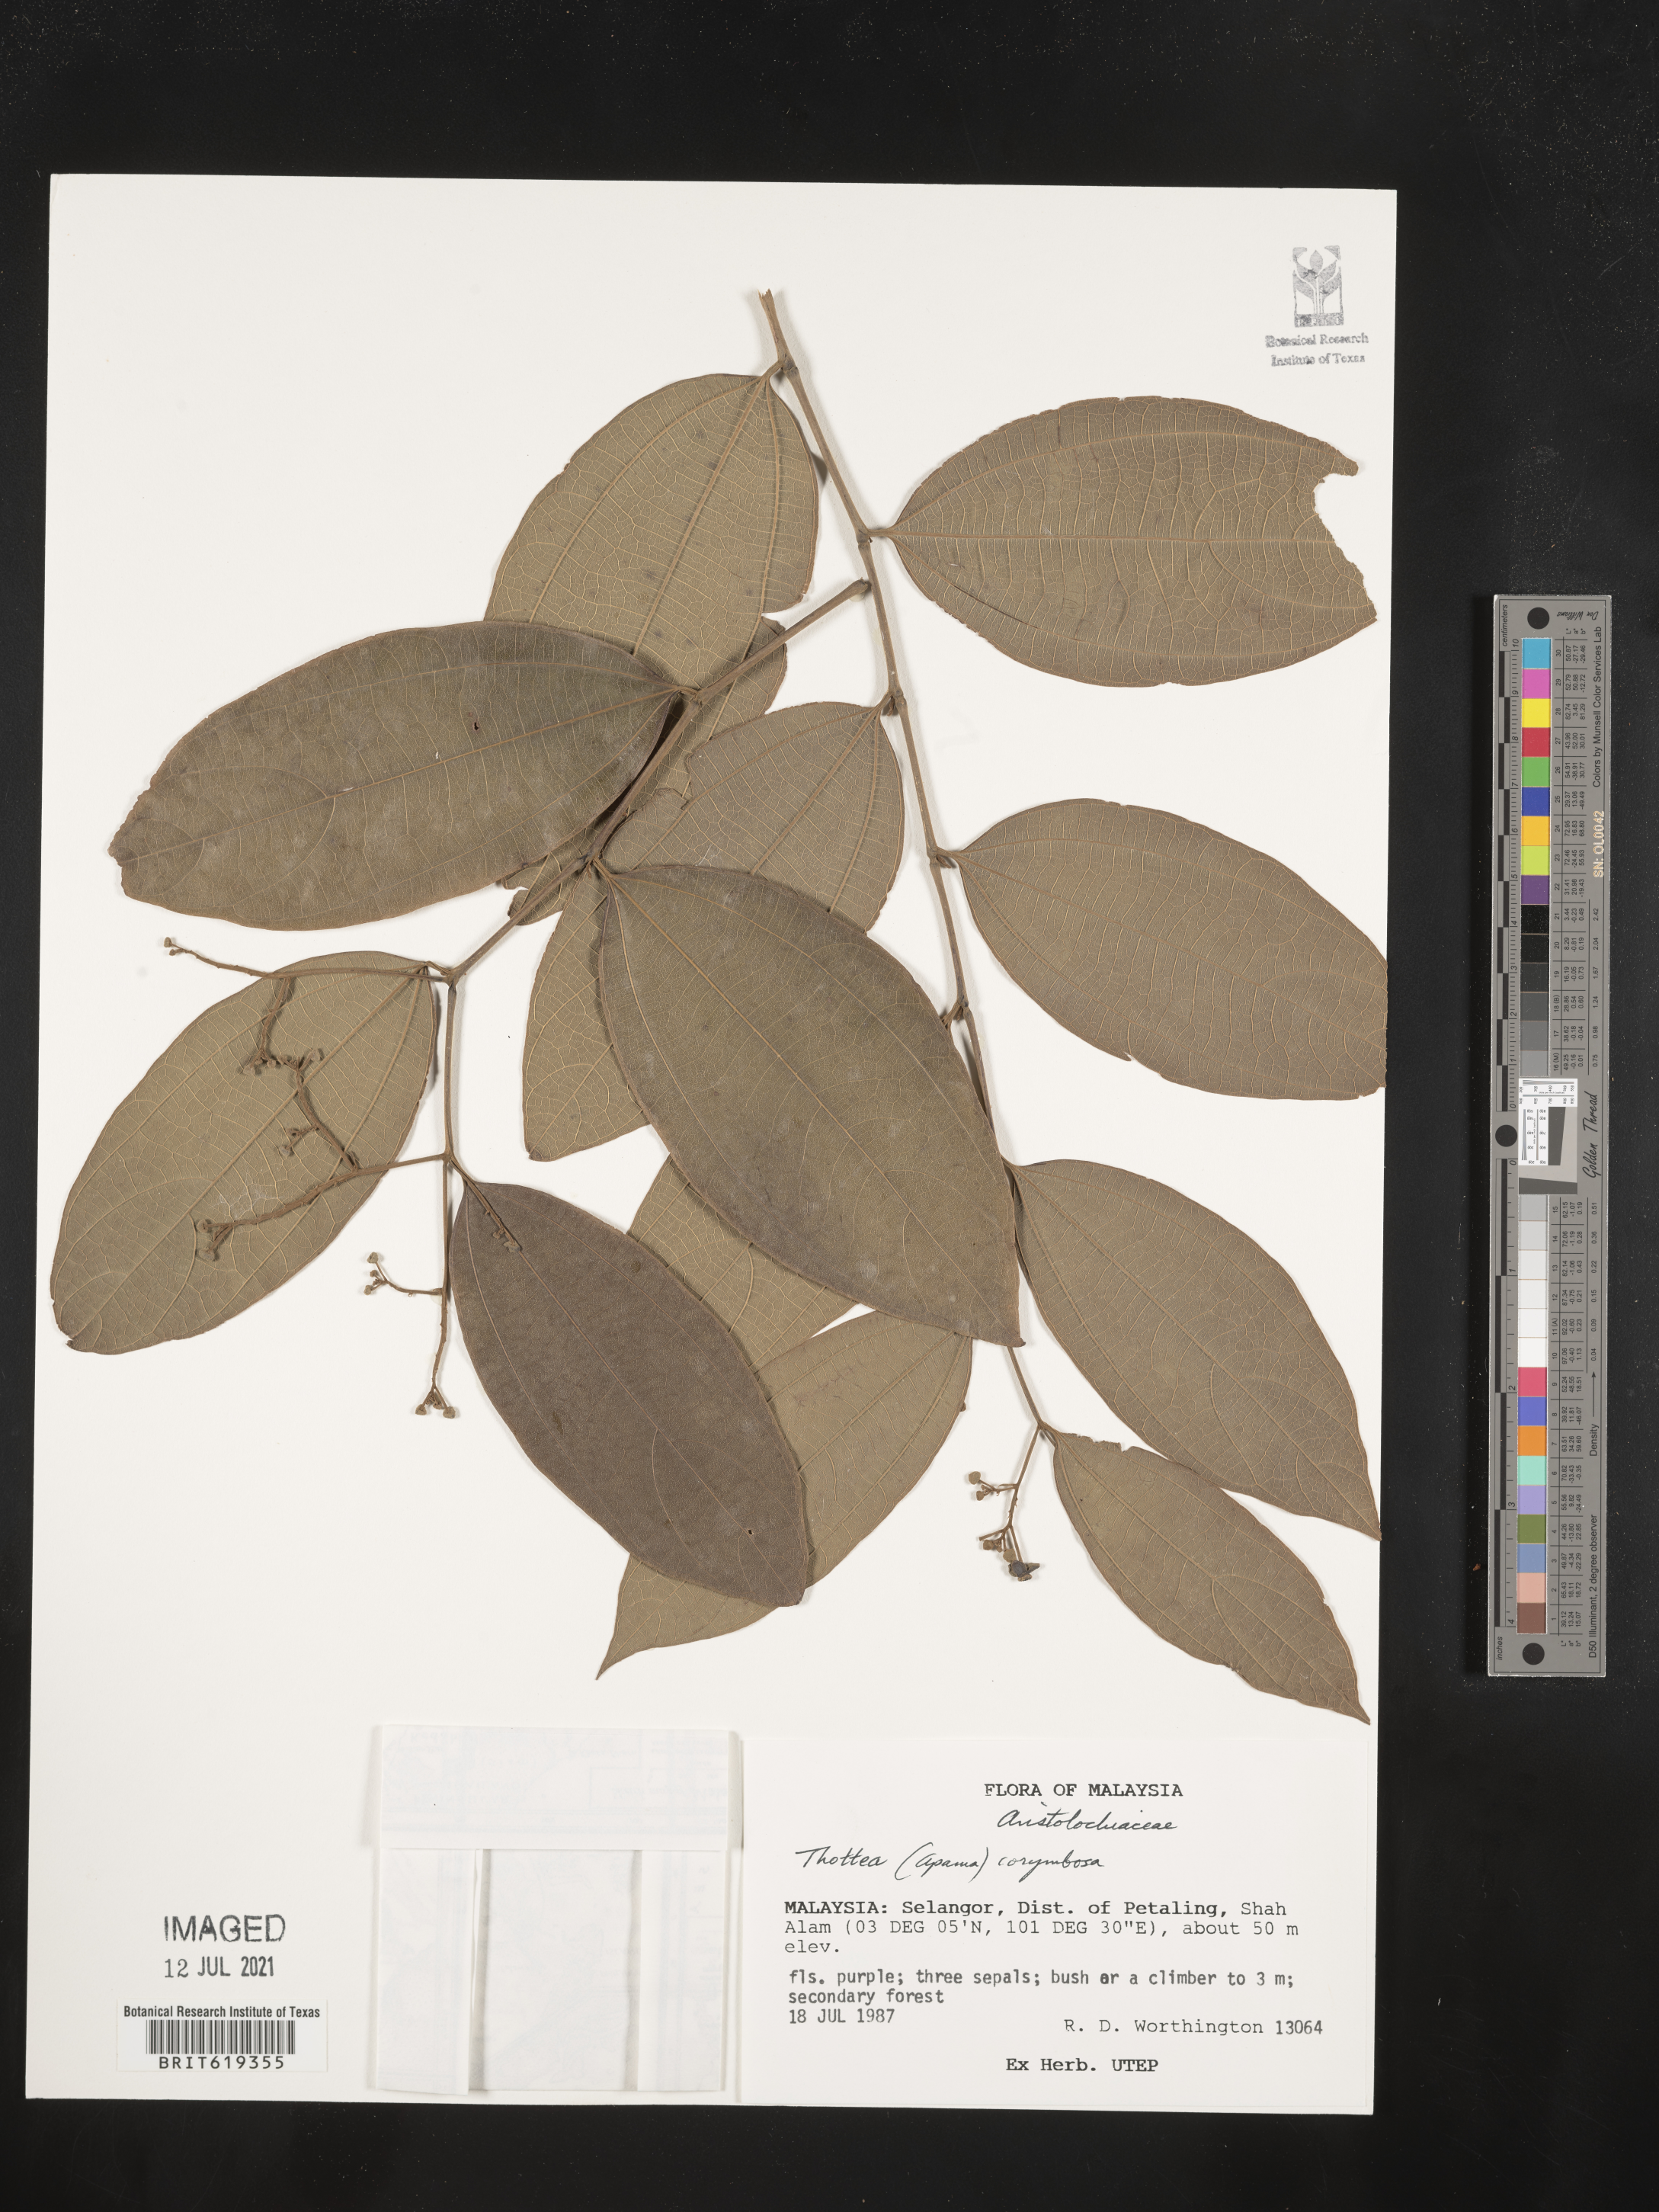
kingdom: Plantae
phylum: Tracheophyta
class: Magnoliopsida
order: Piperales
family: Aristolochiaceae
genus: Thottea
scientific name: Thottea piperiformis
